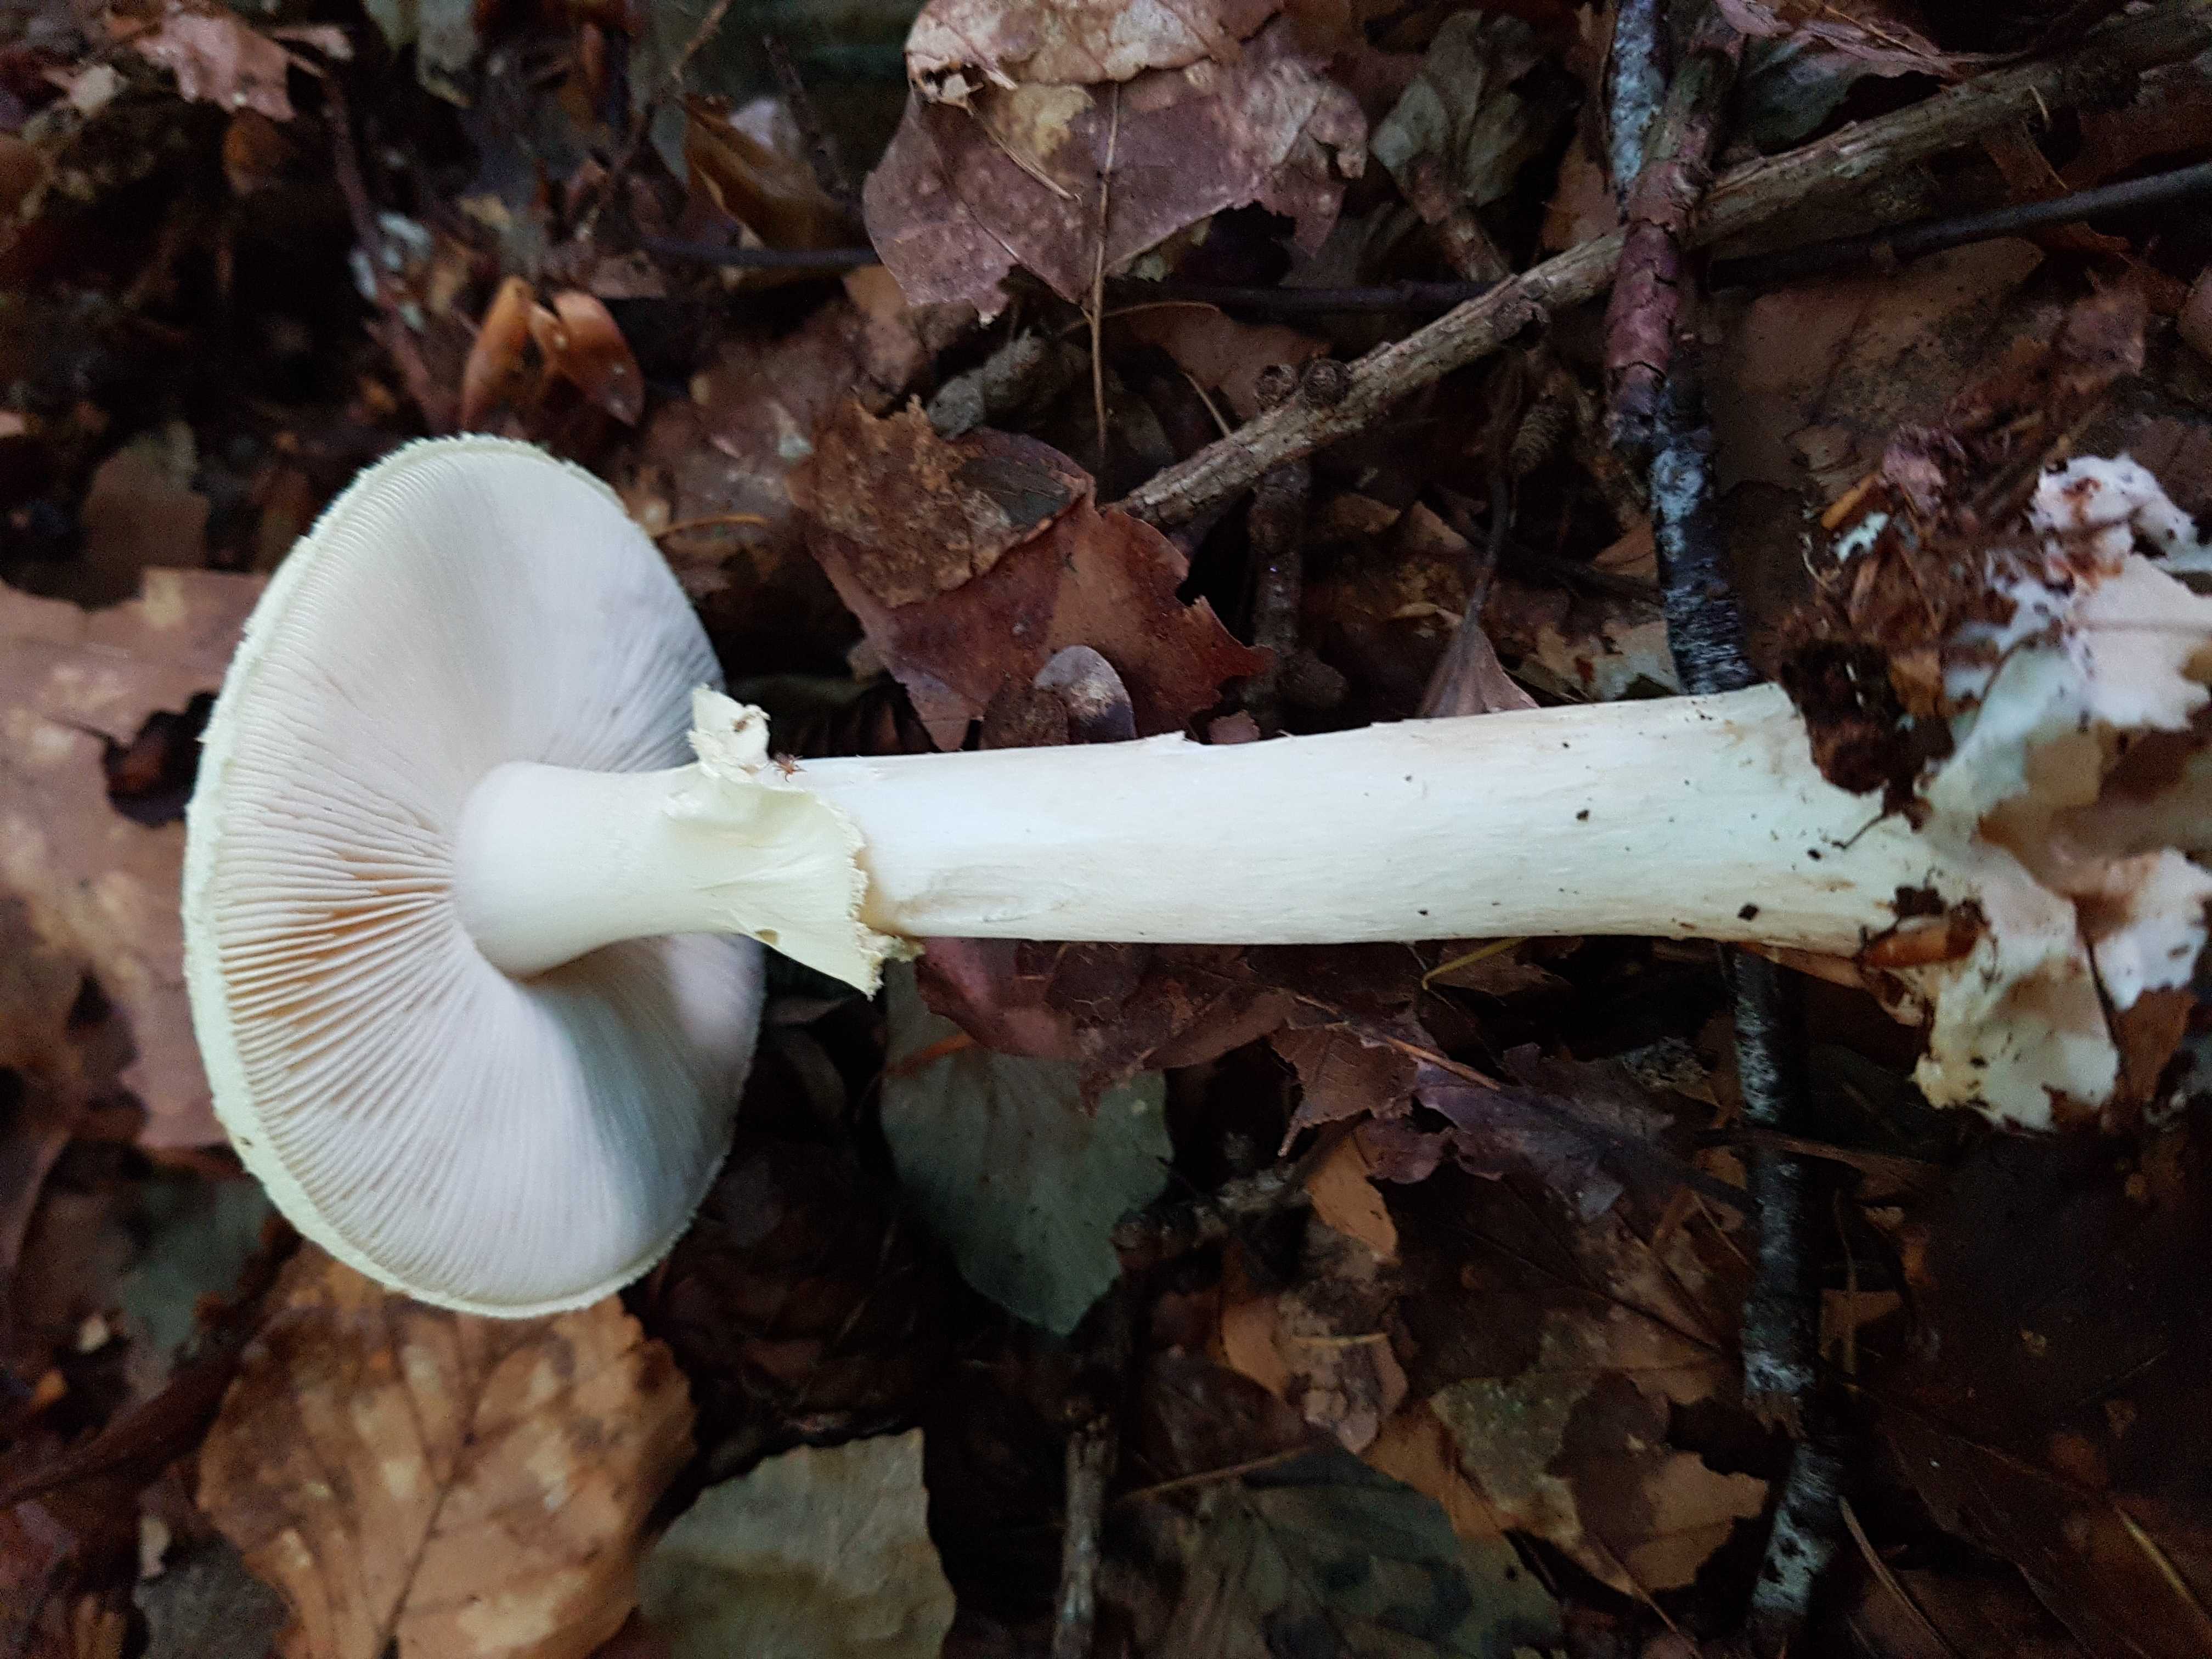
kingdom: Fungi
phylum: Basidiomycota
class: Agaricomycetes
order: Agaricales
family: Amanitaceae
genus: Amanita
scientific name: Amanita citrina
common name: kugleknoldet fluesvamp
